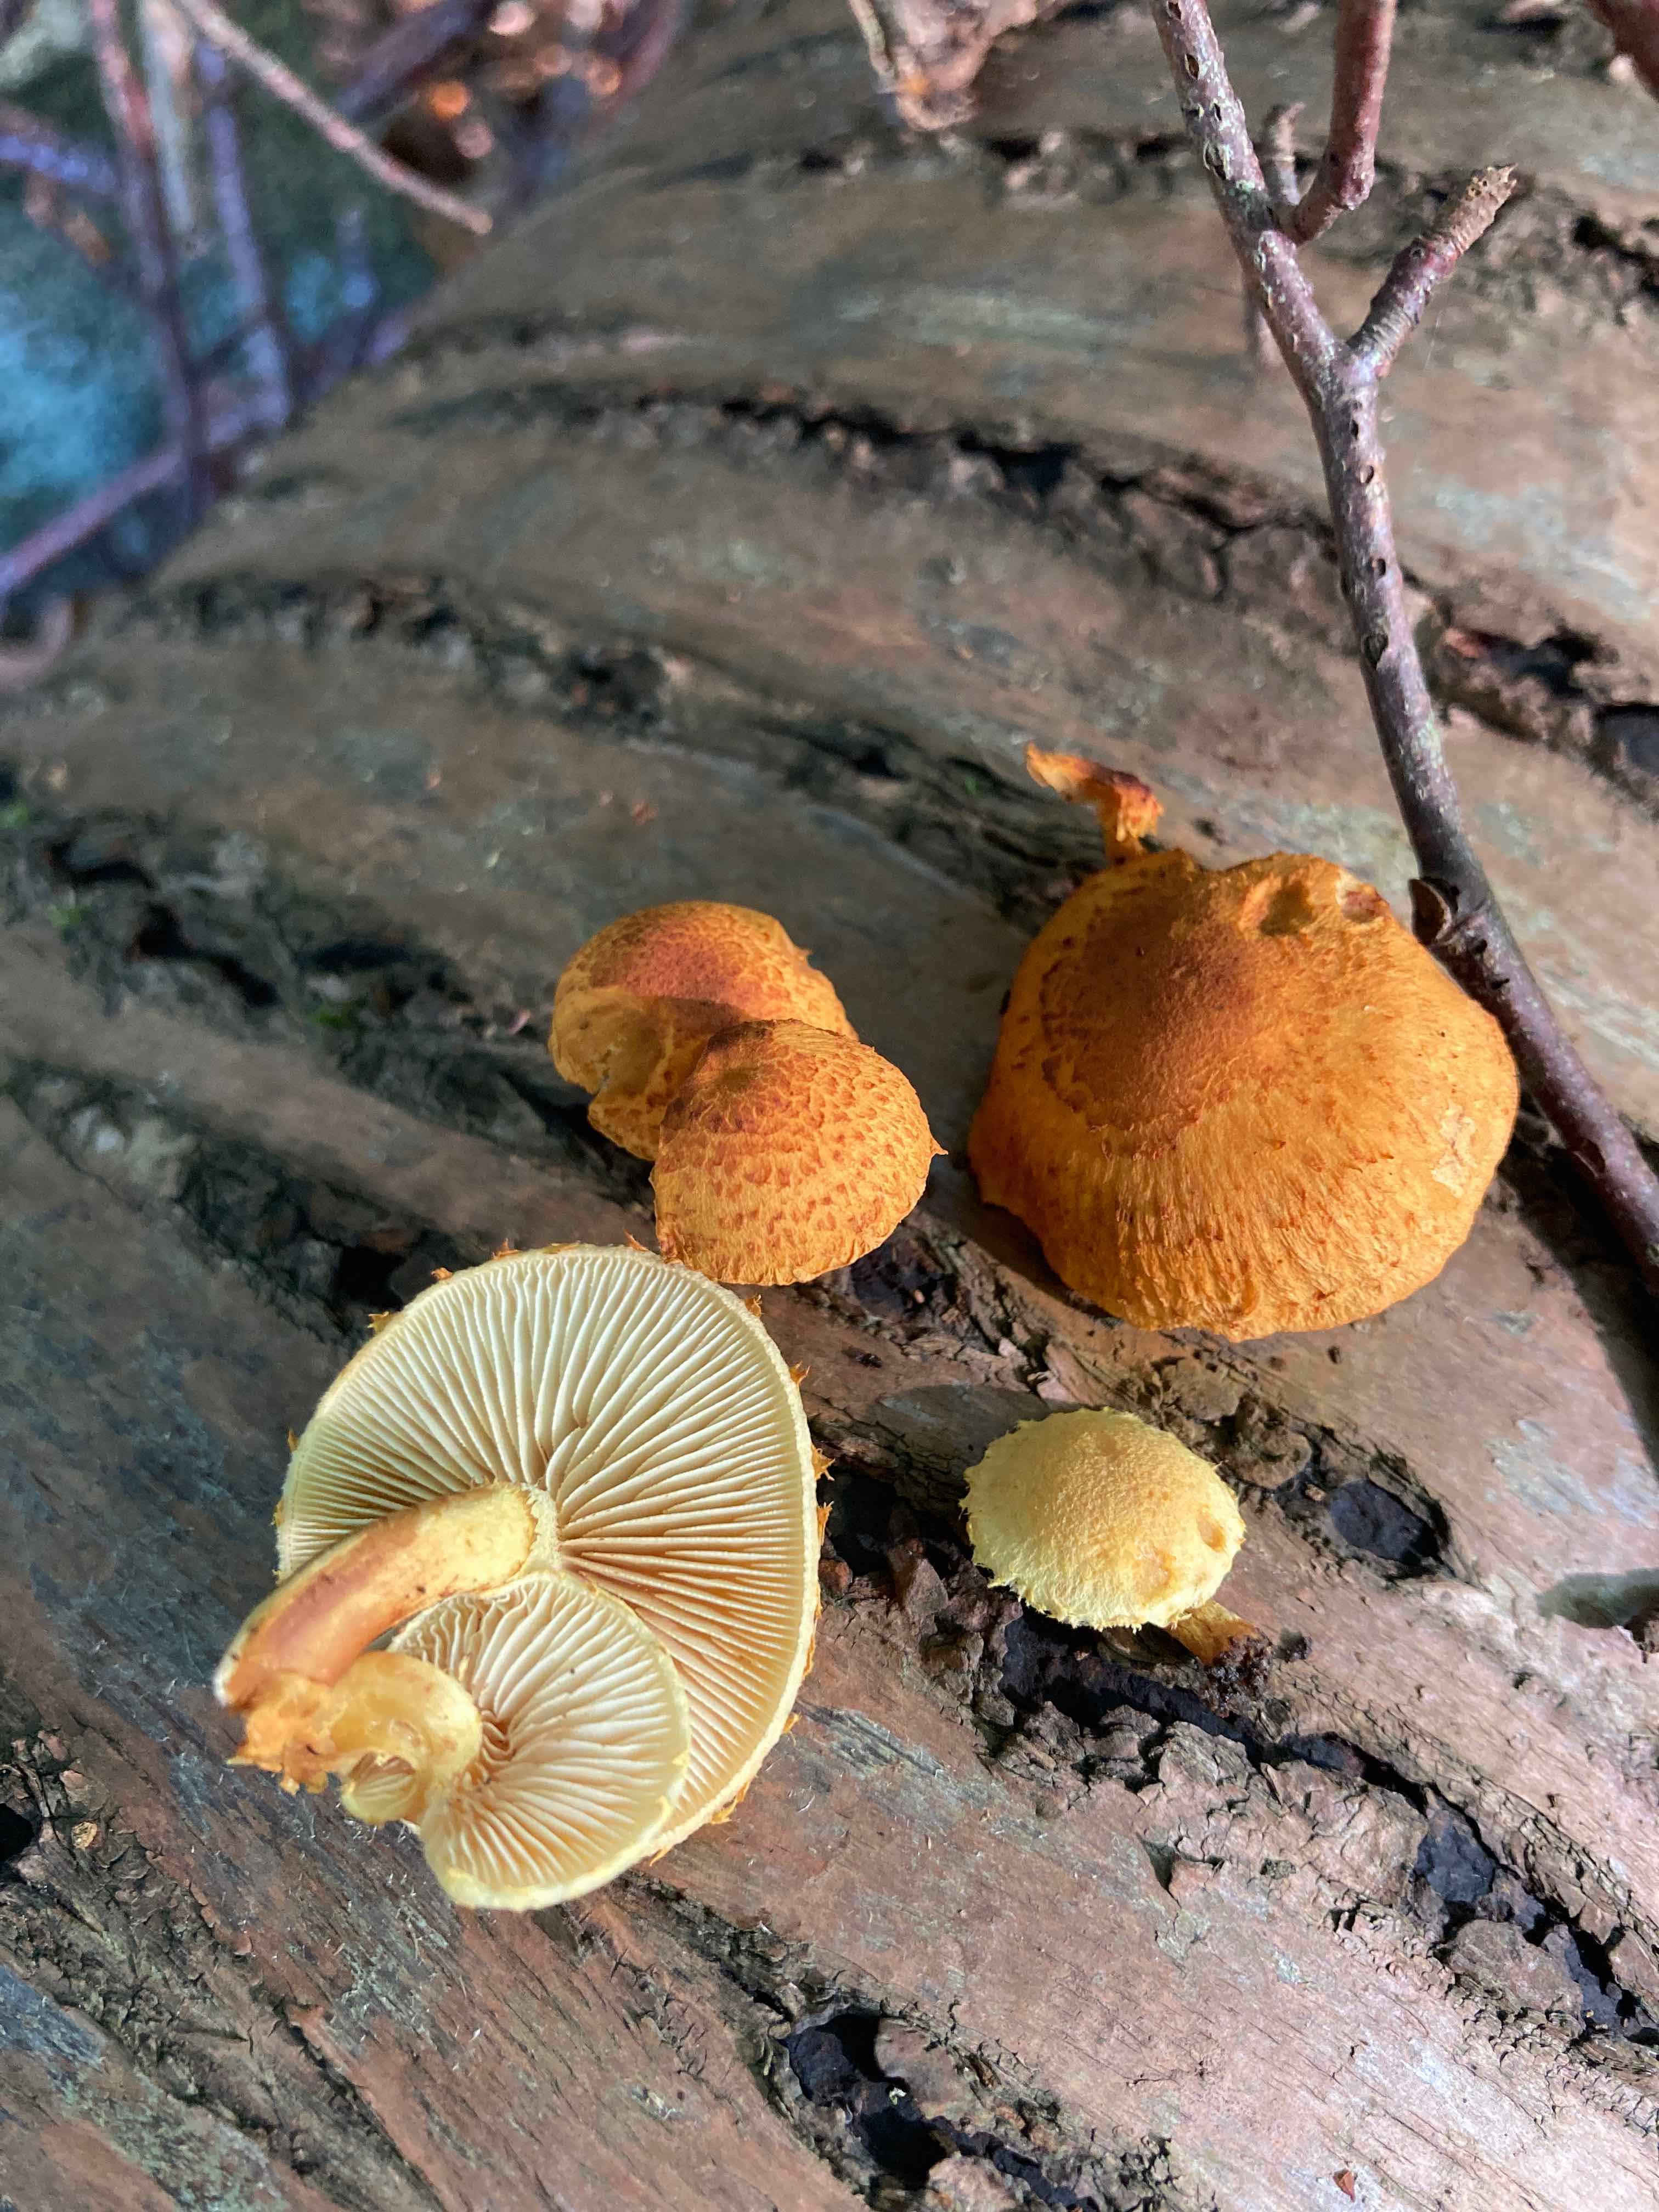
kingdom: Fungi
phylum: Basidiomycota
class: Agaricomycetes
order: Agaricales
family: Strophariaceae
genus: Pholiota
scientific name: Pholiota tuberculosa
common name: finskællet skælhat
